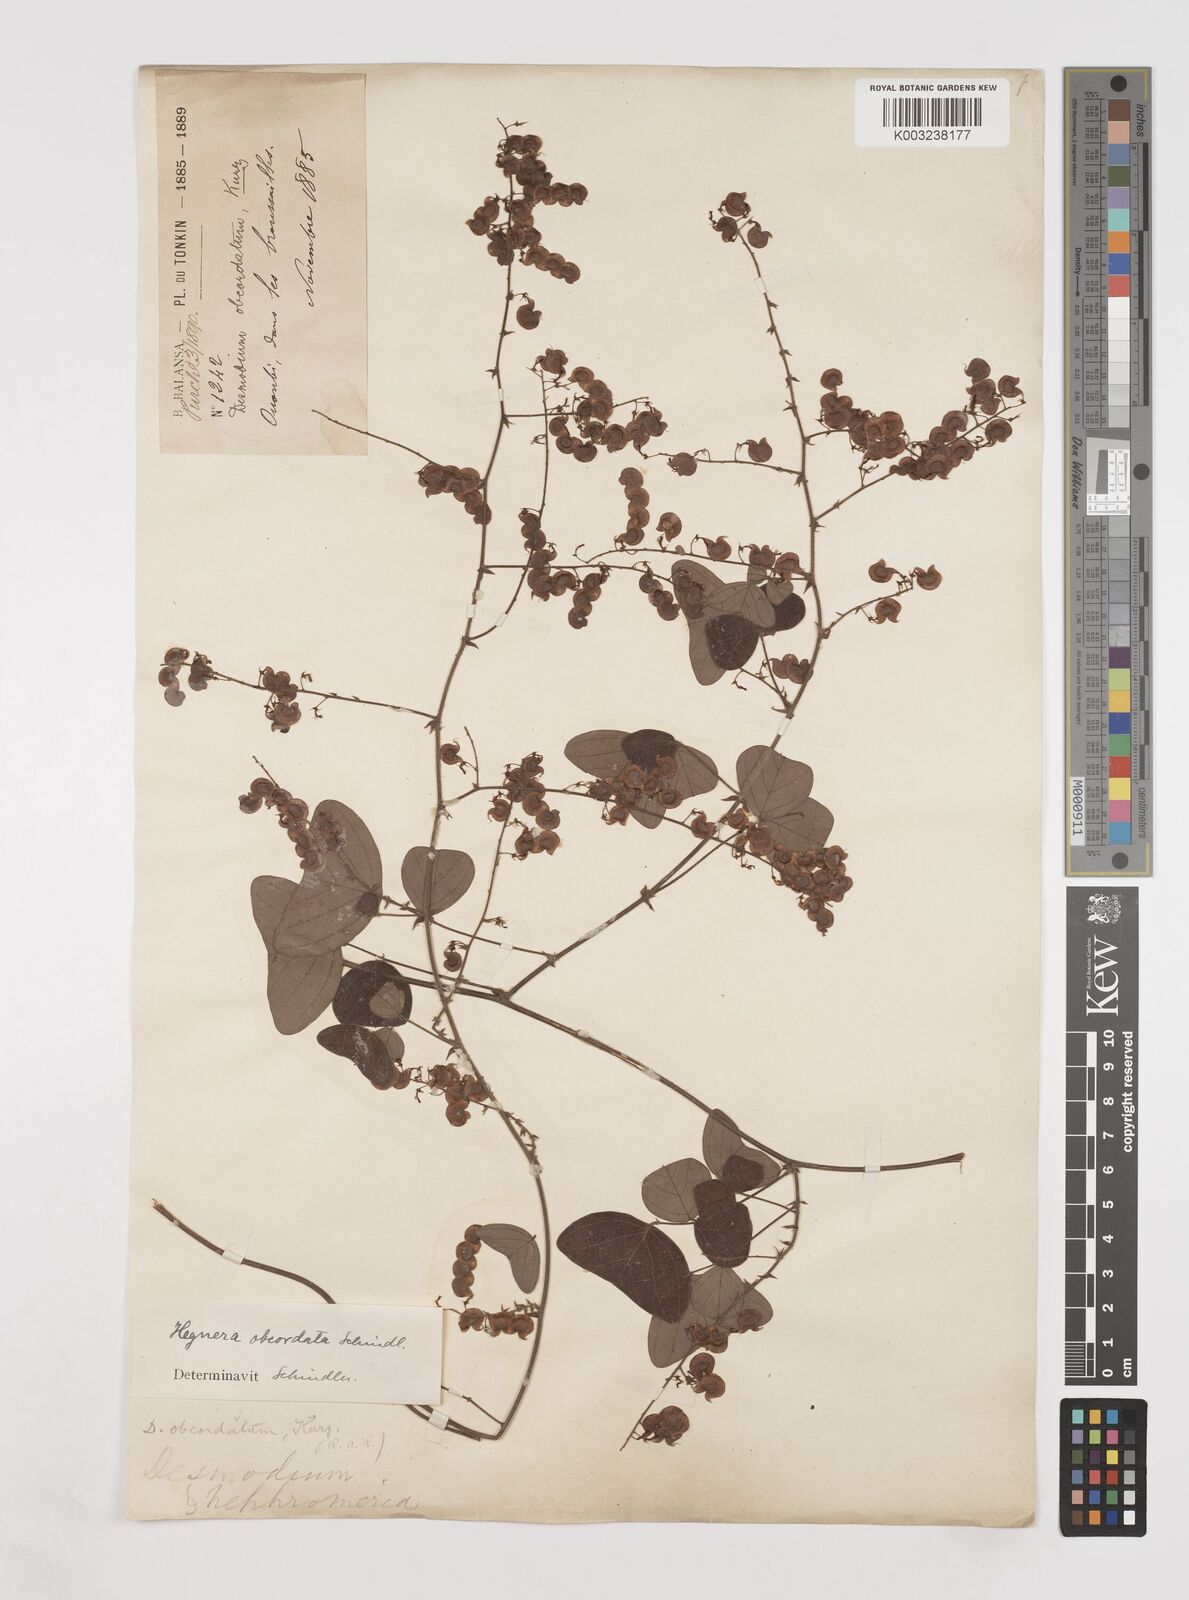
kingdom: Plantae
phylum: Tracheophyta
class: Magnoliopsida
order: Fabales
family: Fabaceae
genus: Hegnera
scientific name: Hegnera obcordata
